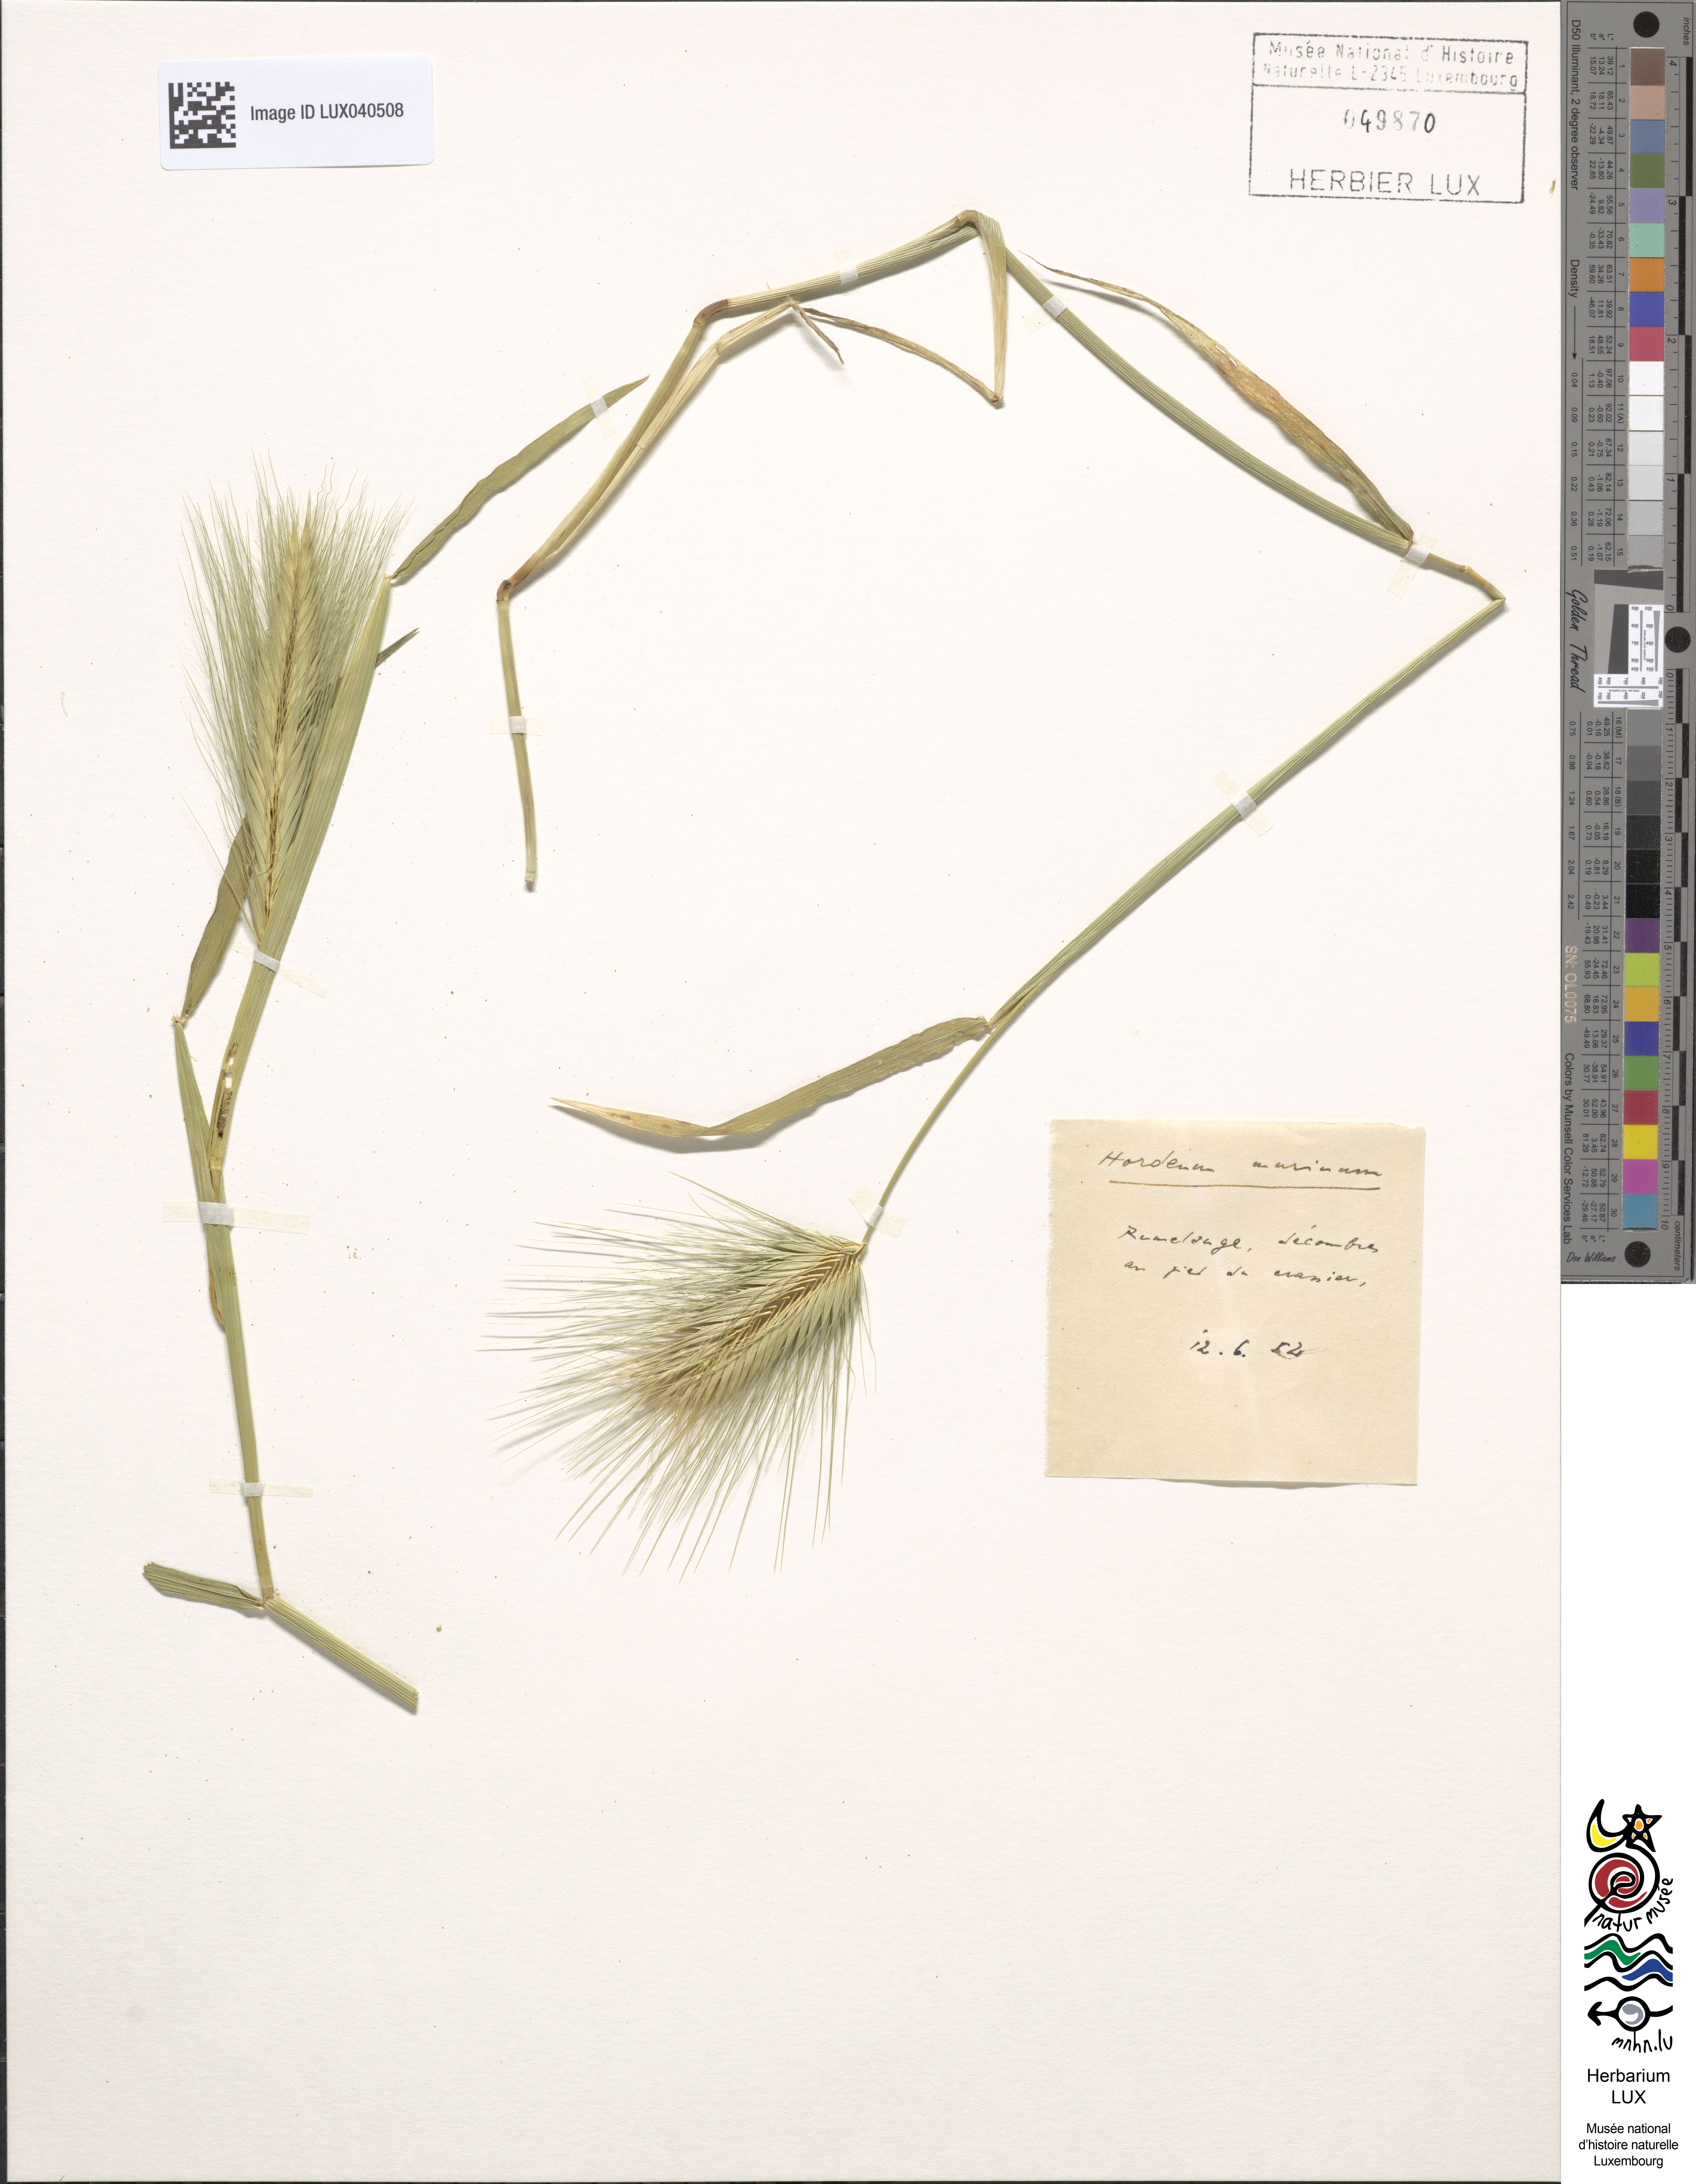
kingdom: Plantae
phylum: Tracheophyta
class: Liliopsida
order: Poales
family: Poaceae
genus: Hordeum
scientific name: Hordeum murinum
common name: Wall barley
